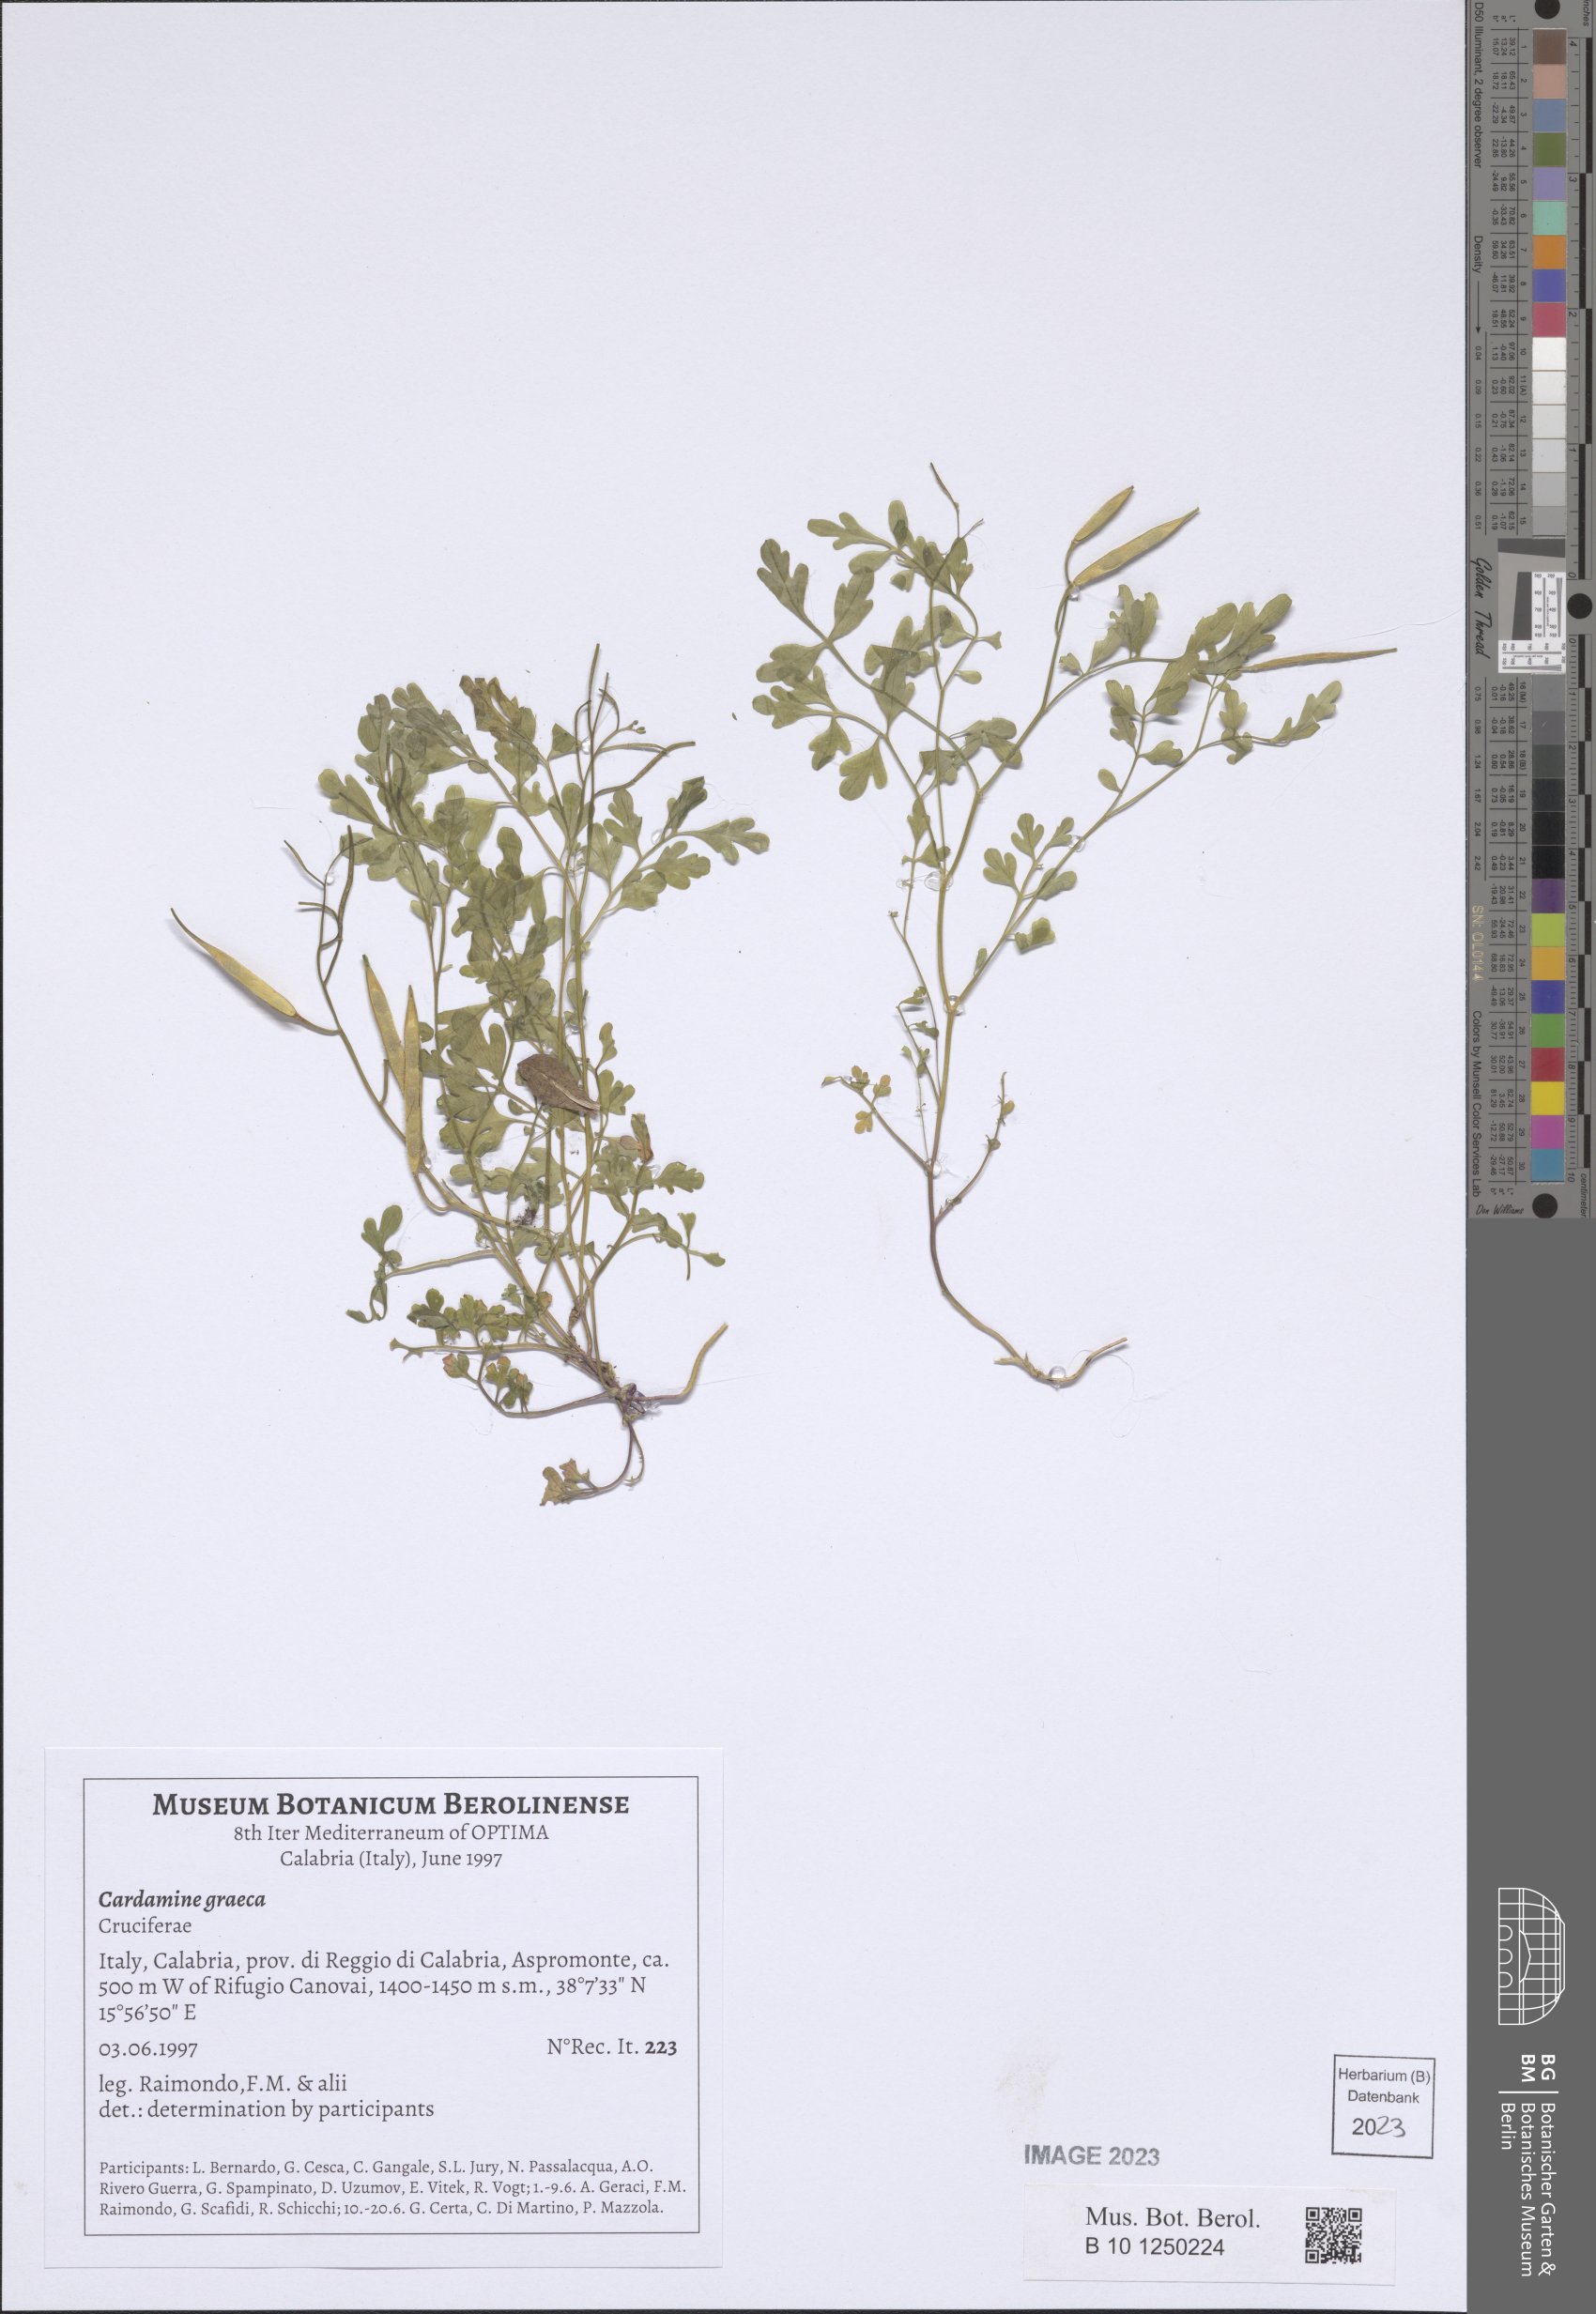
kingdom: Plantae
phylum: Tracheophyta
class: Magnoliopsida
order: Brassicales
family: Brassicaceae
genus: Cardamine
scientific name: Cardamine graeca
